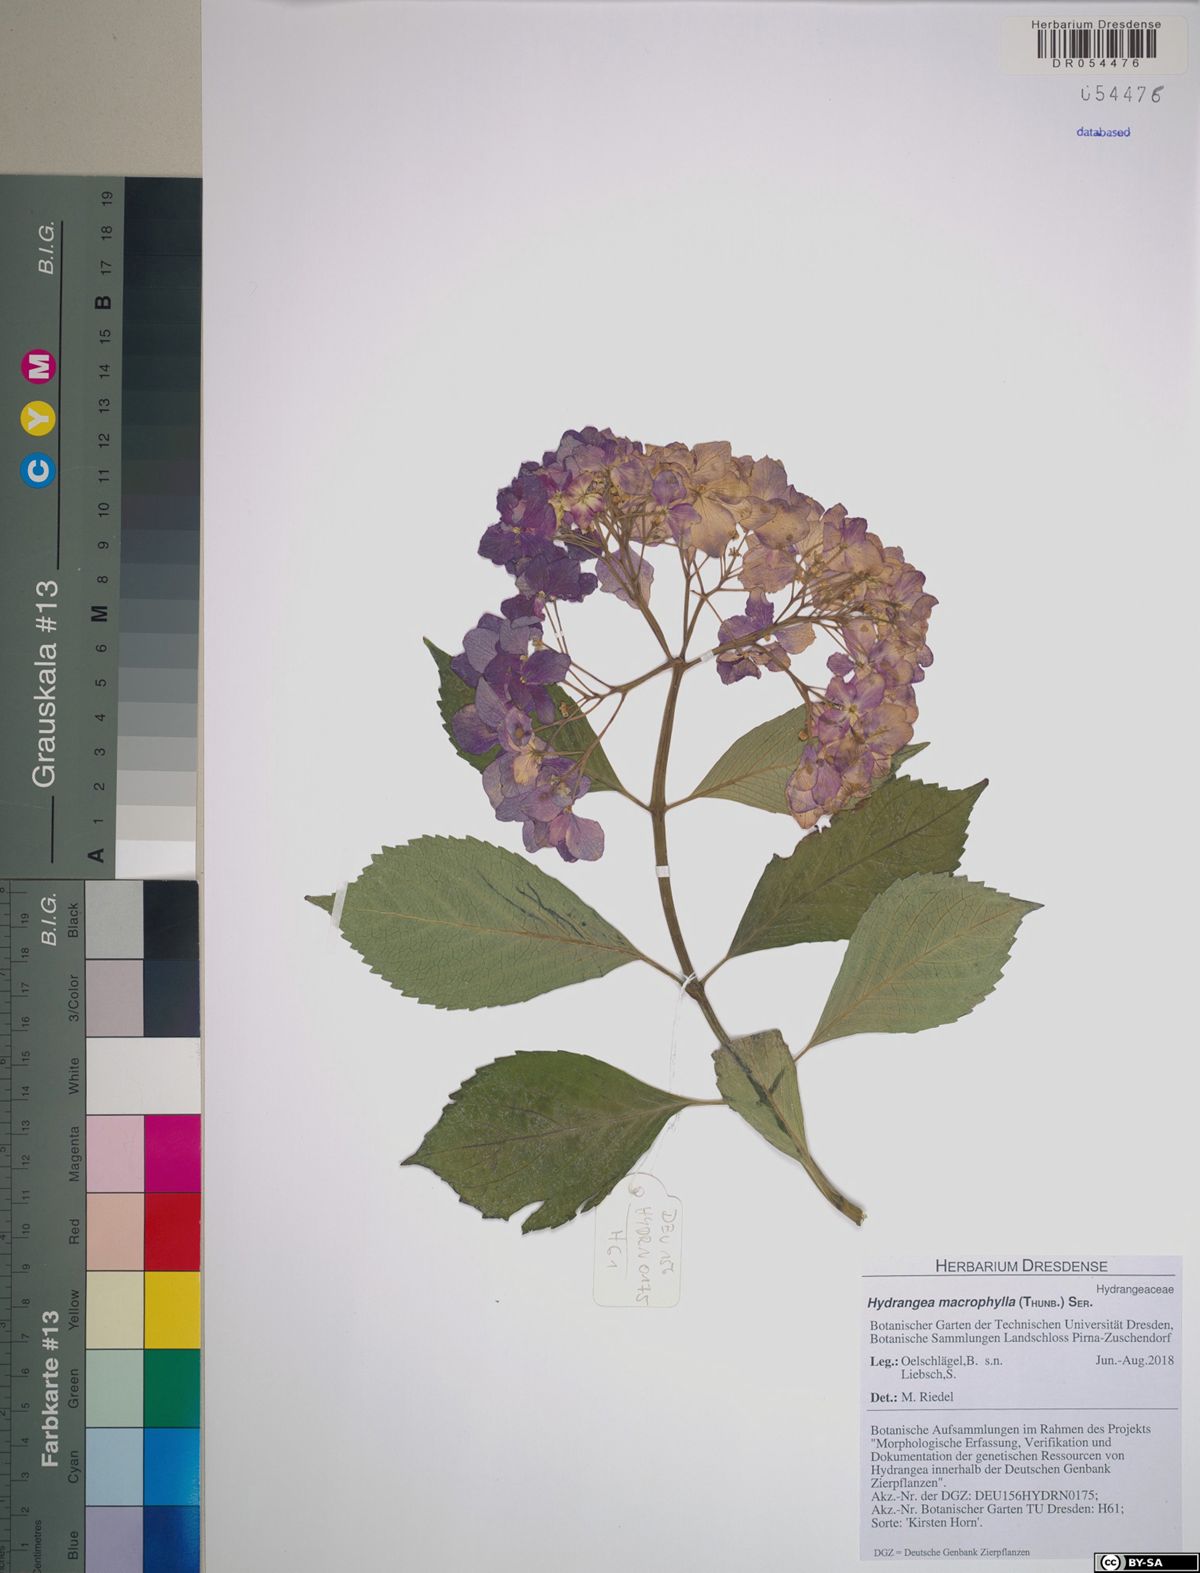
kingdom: Plantae
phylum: Tracheophyta
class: Magnoliopsida
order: Cornales
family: Hydrangeaceae
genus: Hydrangea
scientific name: Hydrangea macrophylla
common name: Hydrangea
